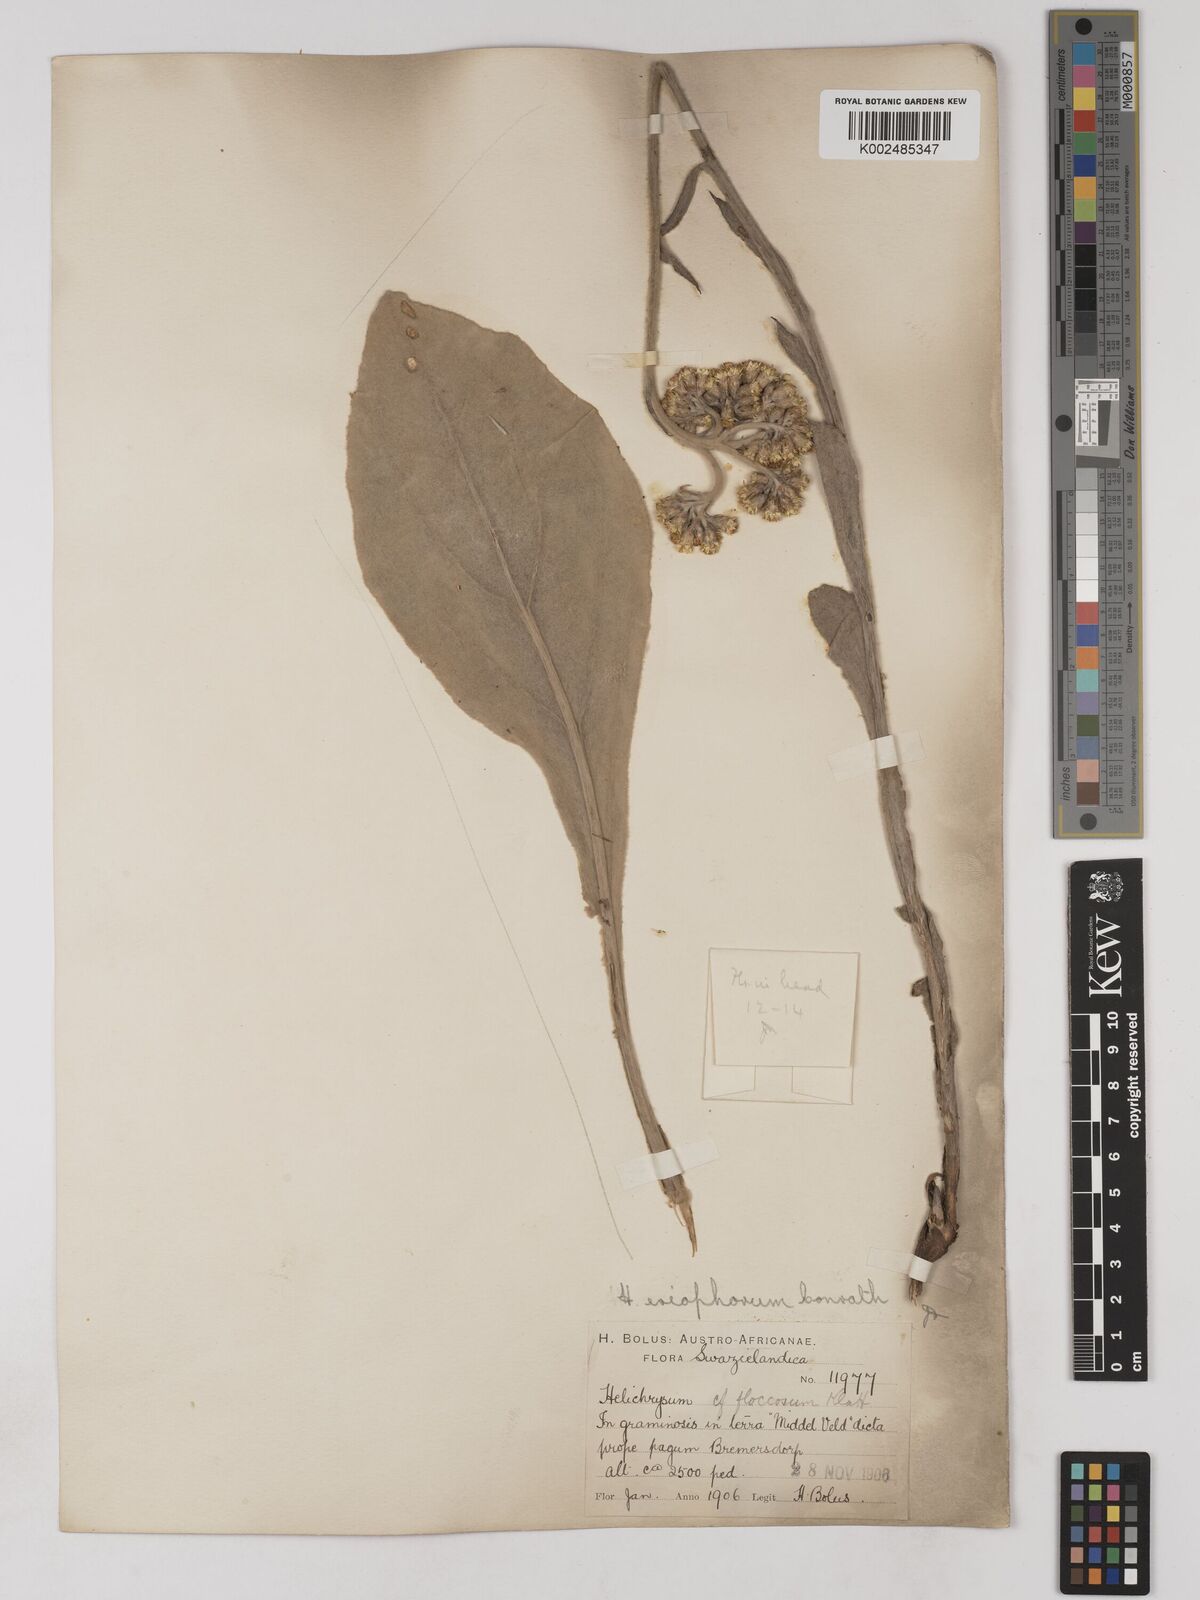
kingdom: Plantae
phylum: Tracheophyta
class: Magnoliopsida
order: Asterales
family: Asteraceae
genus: Helichrysum
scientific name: Helichrysum acutatum
